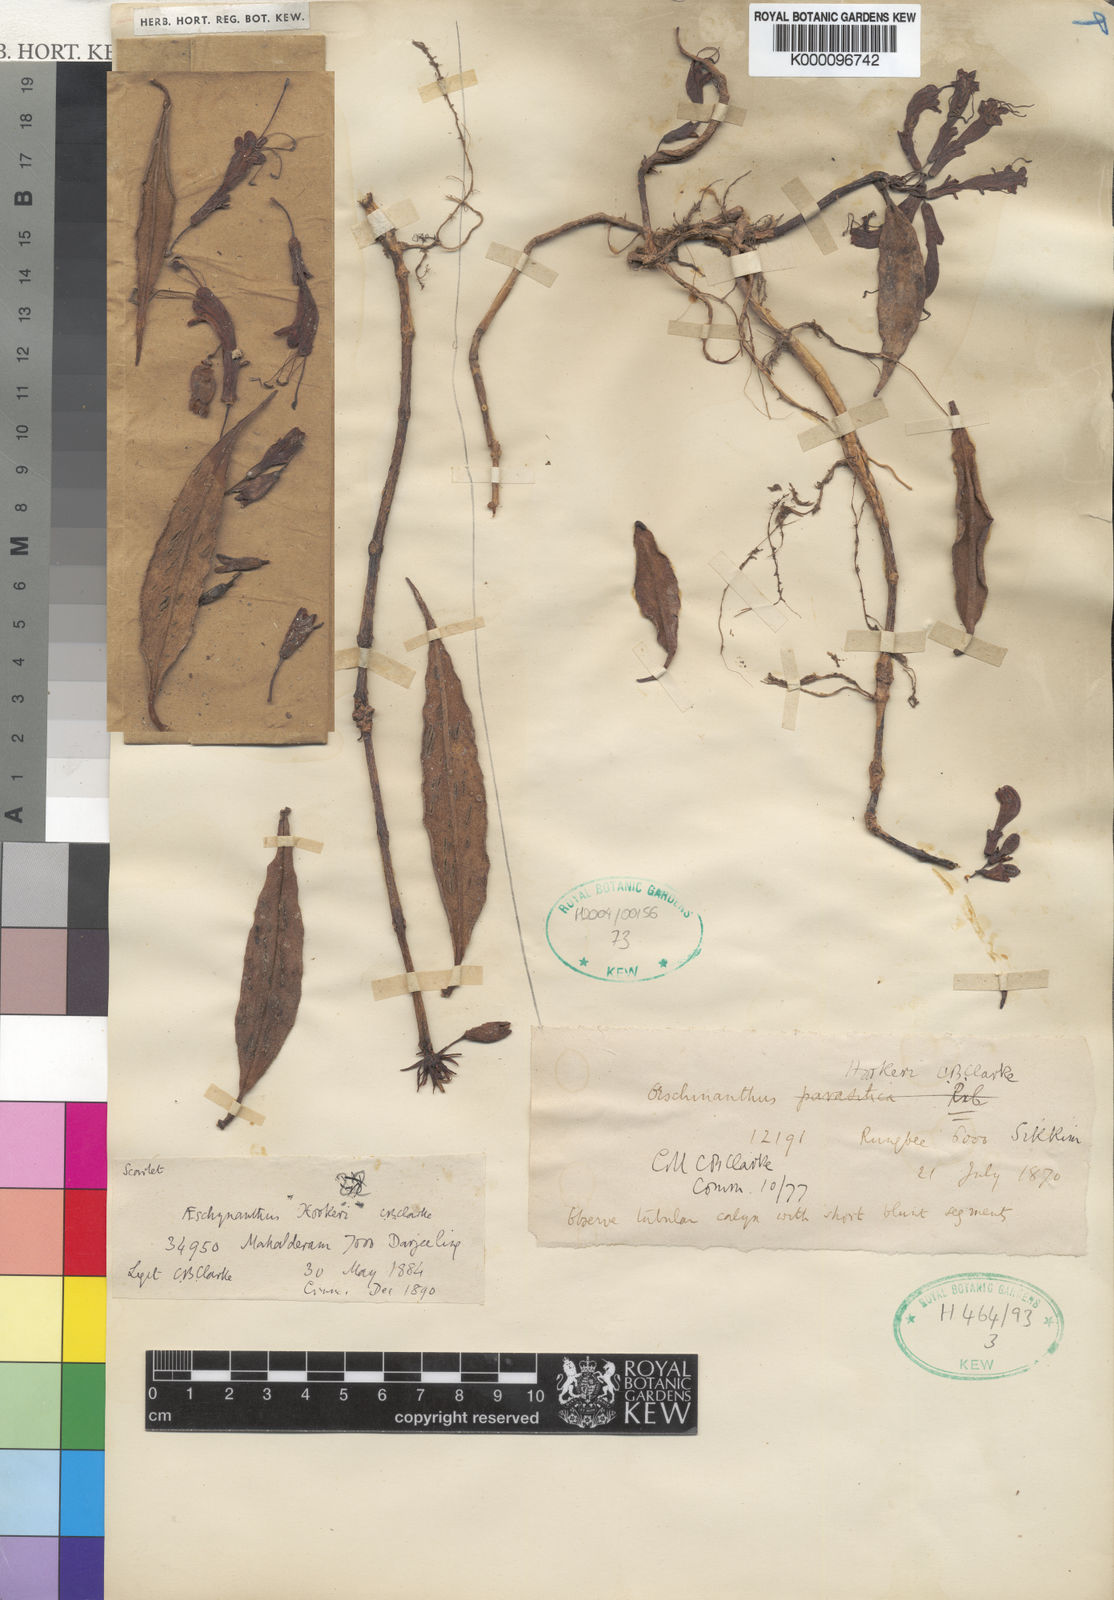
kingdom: Plantae
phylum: Tracheophyta
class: Magnoliopsida
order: Lamiales
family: Gesneriaceae
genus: Aeschynanthus
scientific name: Aeschynanthus hookeri
